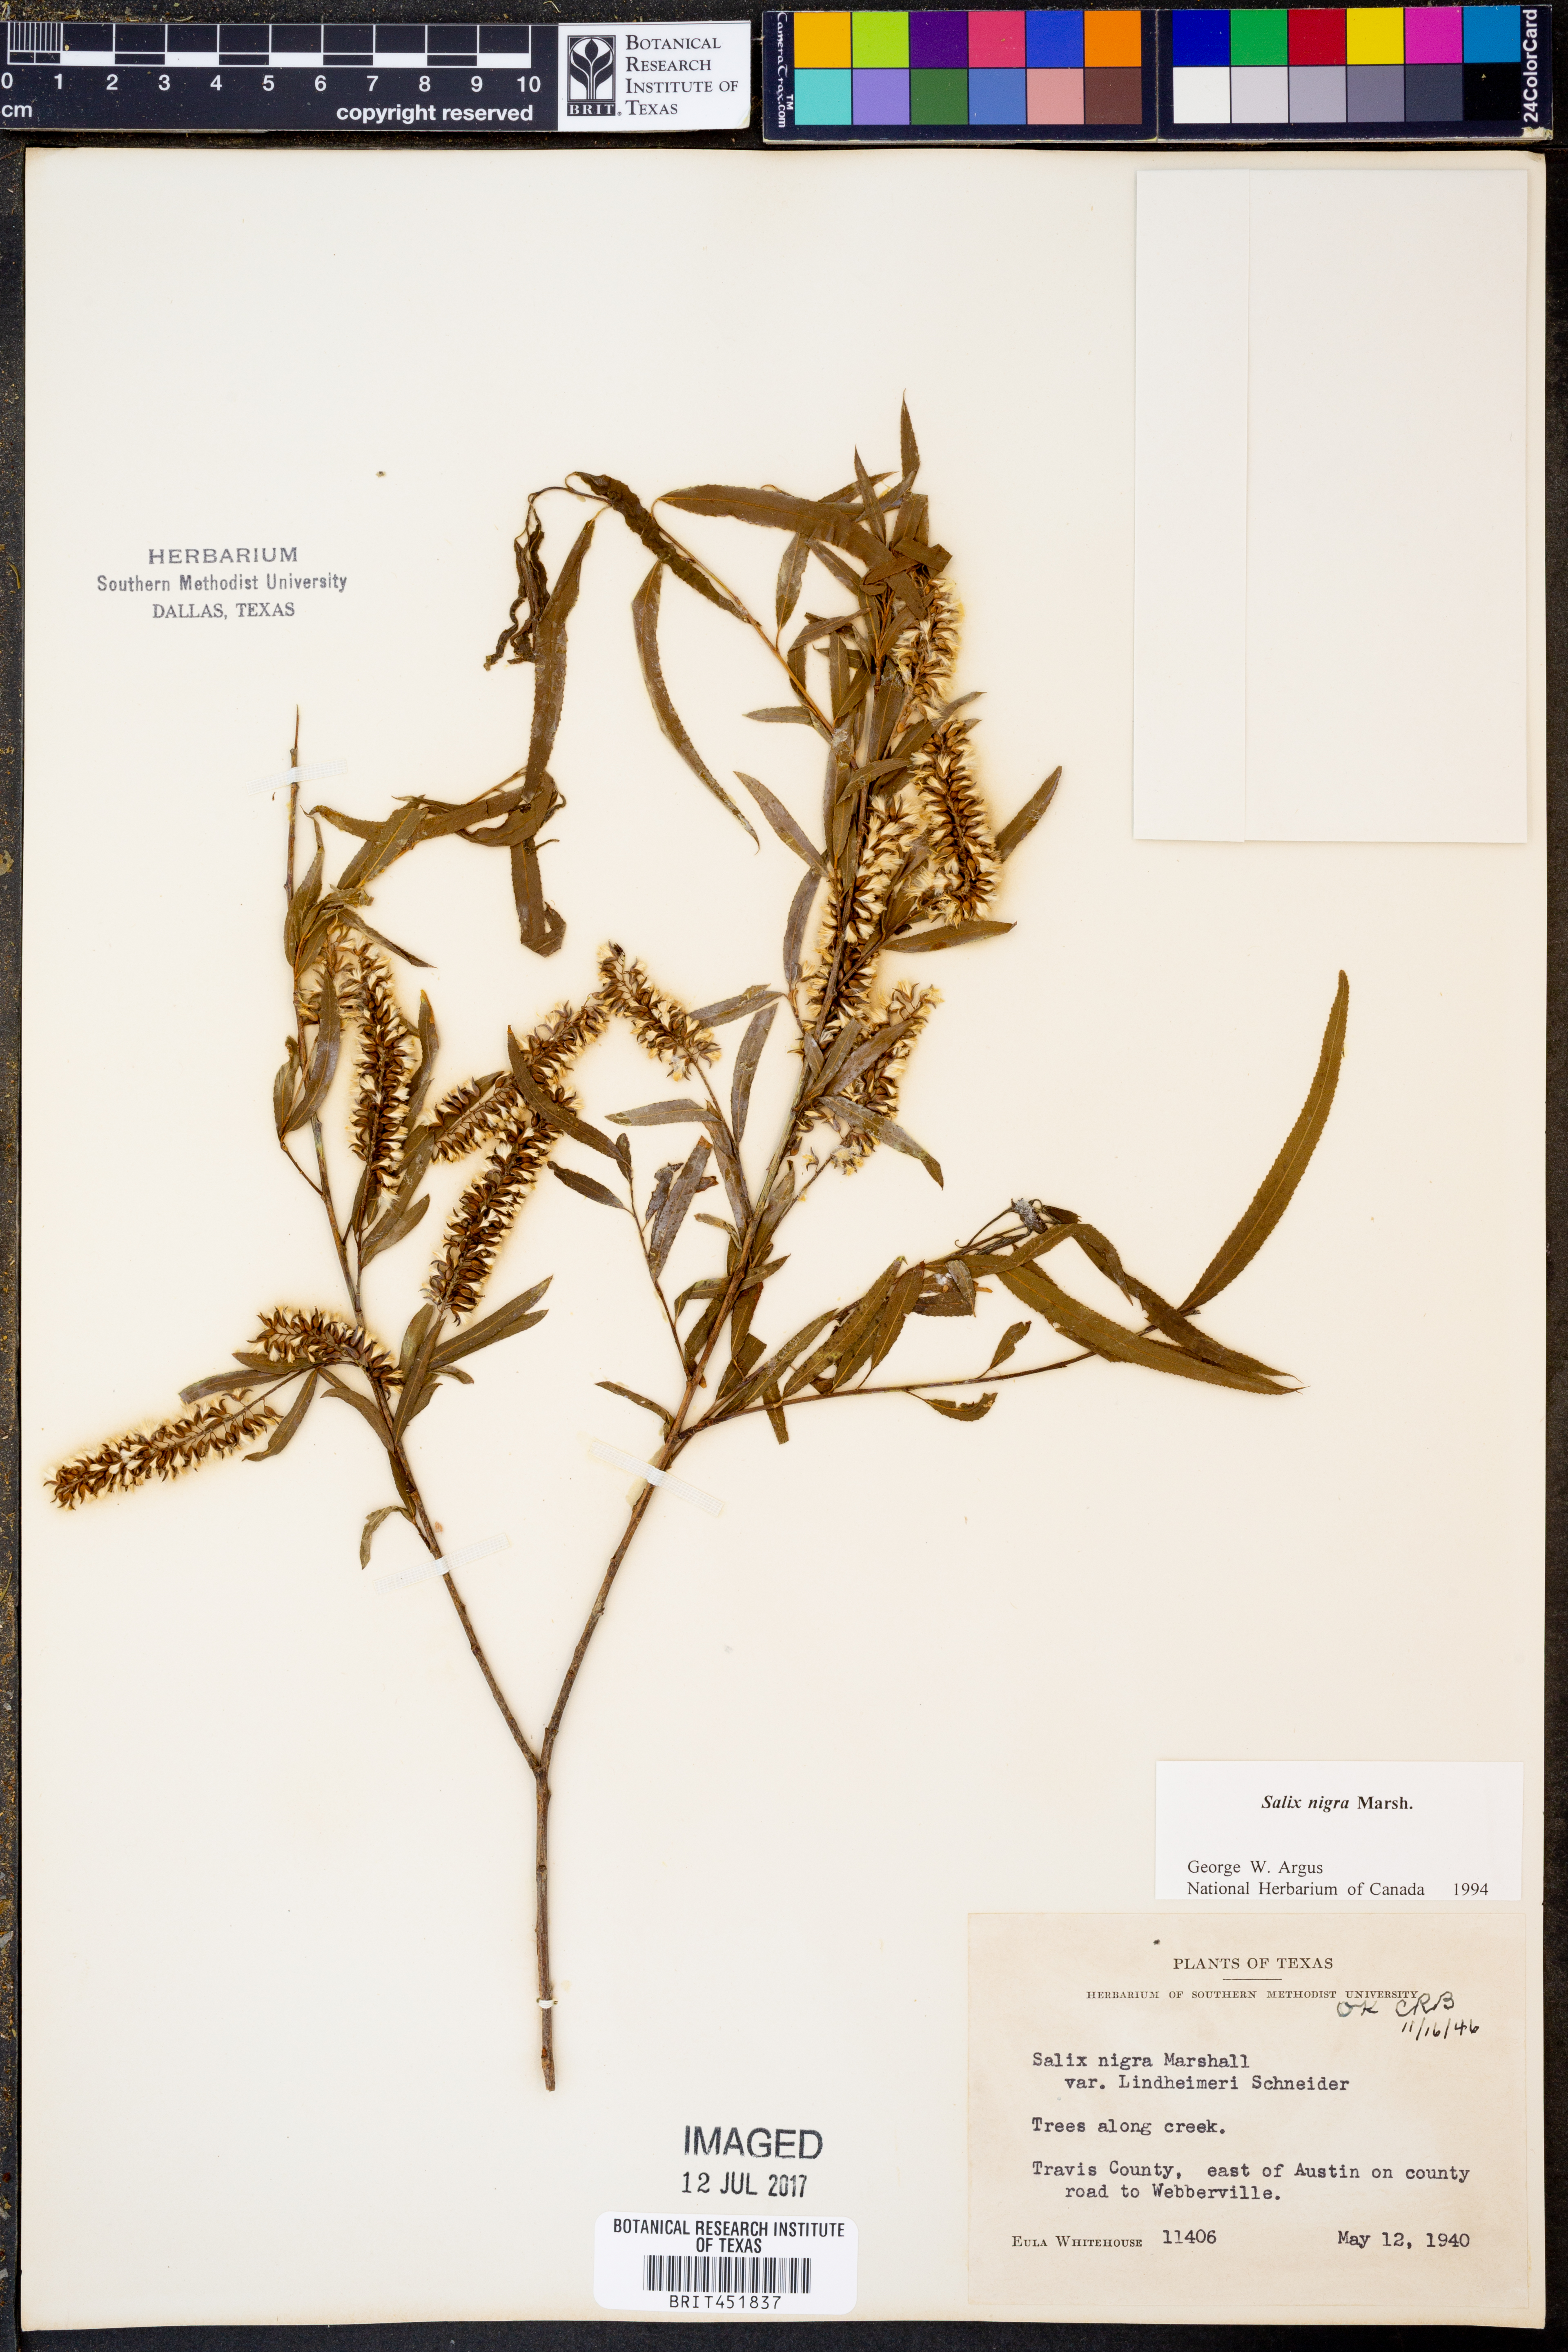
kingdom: Plantae
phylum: Tracheophyta
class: Magnoliopsida
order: Malpighiales
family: Salicaceae
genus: Salix
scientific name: Salix nigra
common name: Black willow
